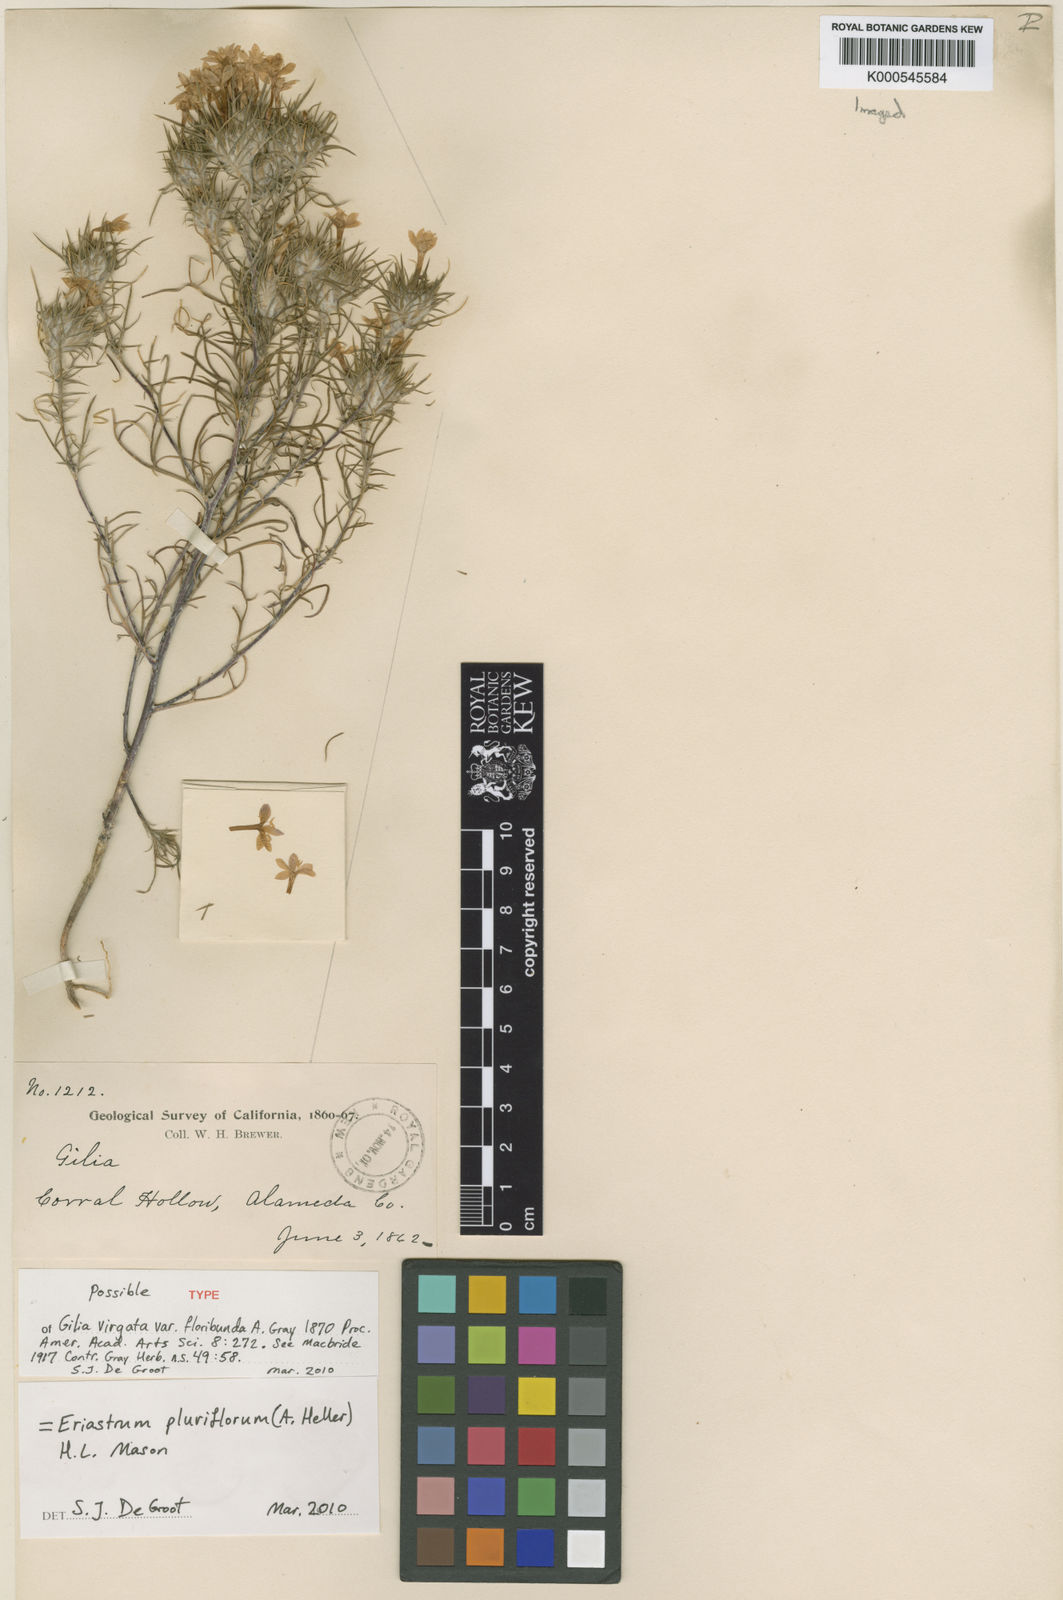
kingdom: Plantae
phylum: Tracheophyta
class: Magnoliopsida
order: Ericales
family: Polemoniaceae
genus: Eriastrum
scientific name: Eriastrum pluriflorum
